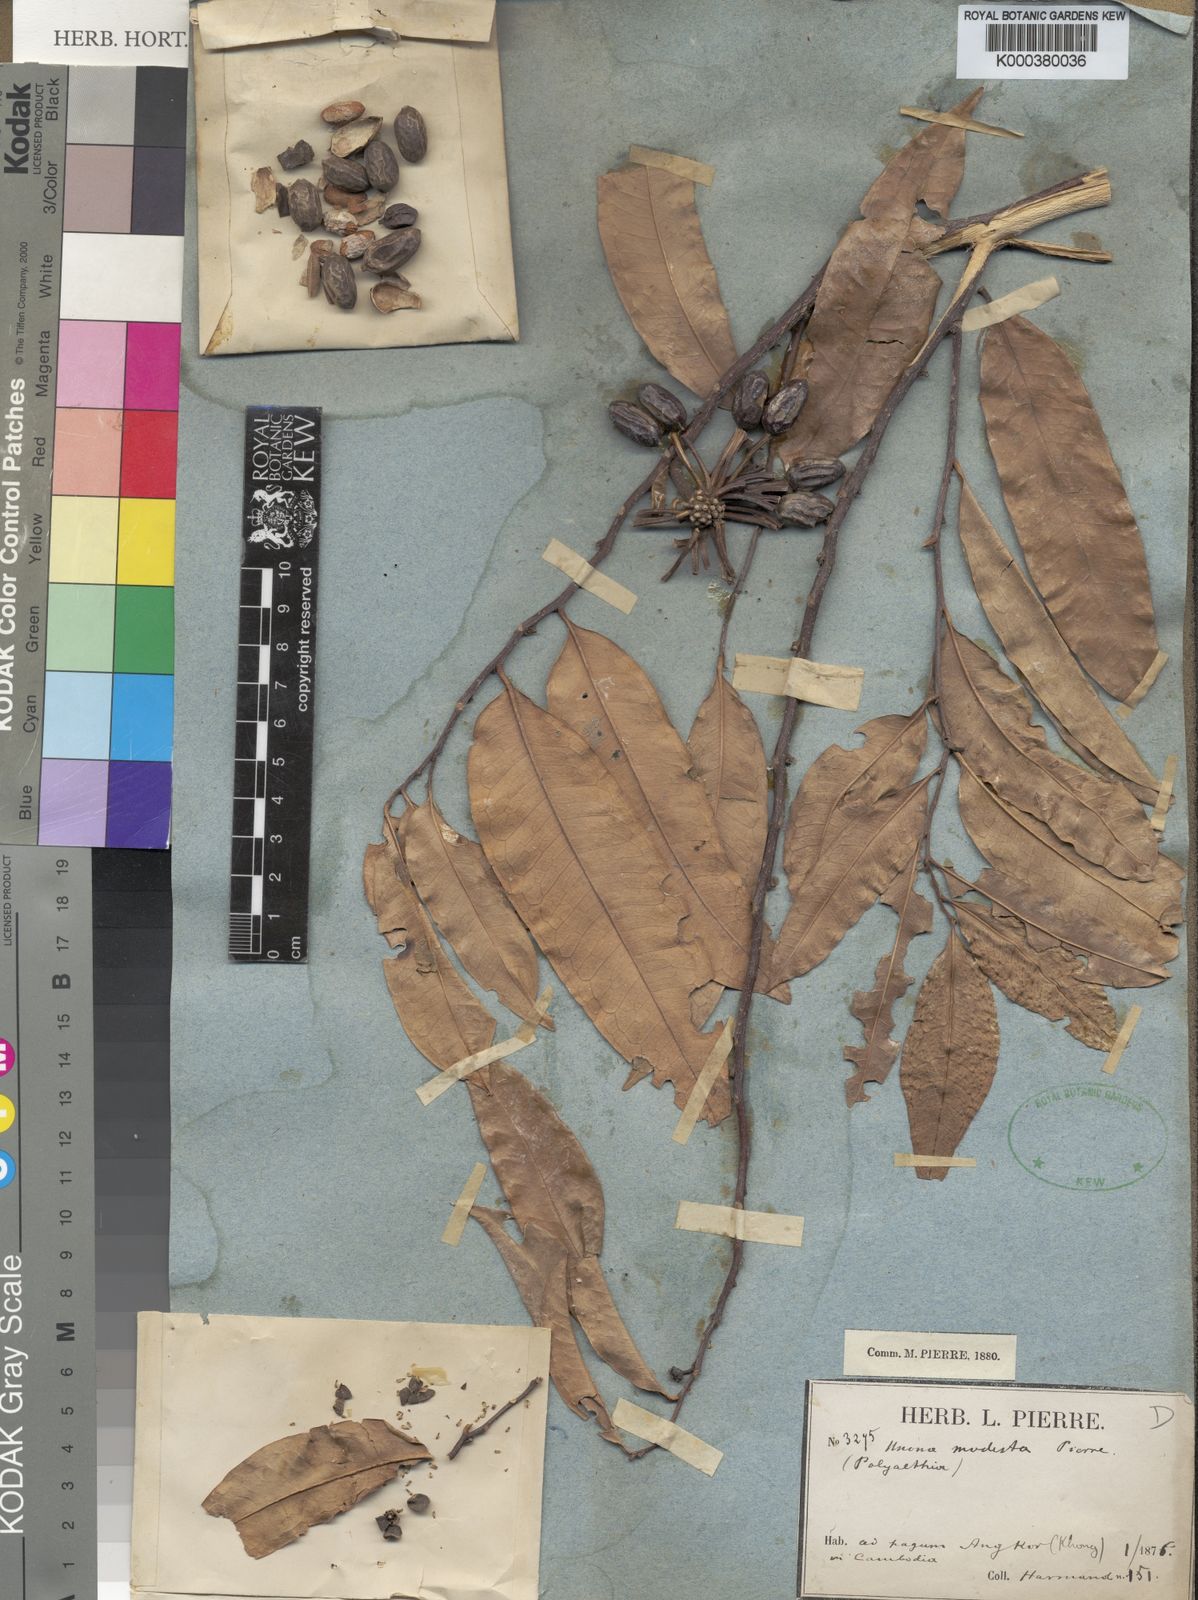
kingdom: Plantae
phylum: Tracheophyta
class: Magnoliopsida
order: Magnoliales
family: Annonaceae
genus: Marsypopetalum
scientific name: Marsypopetalum modestum
